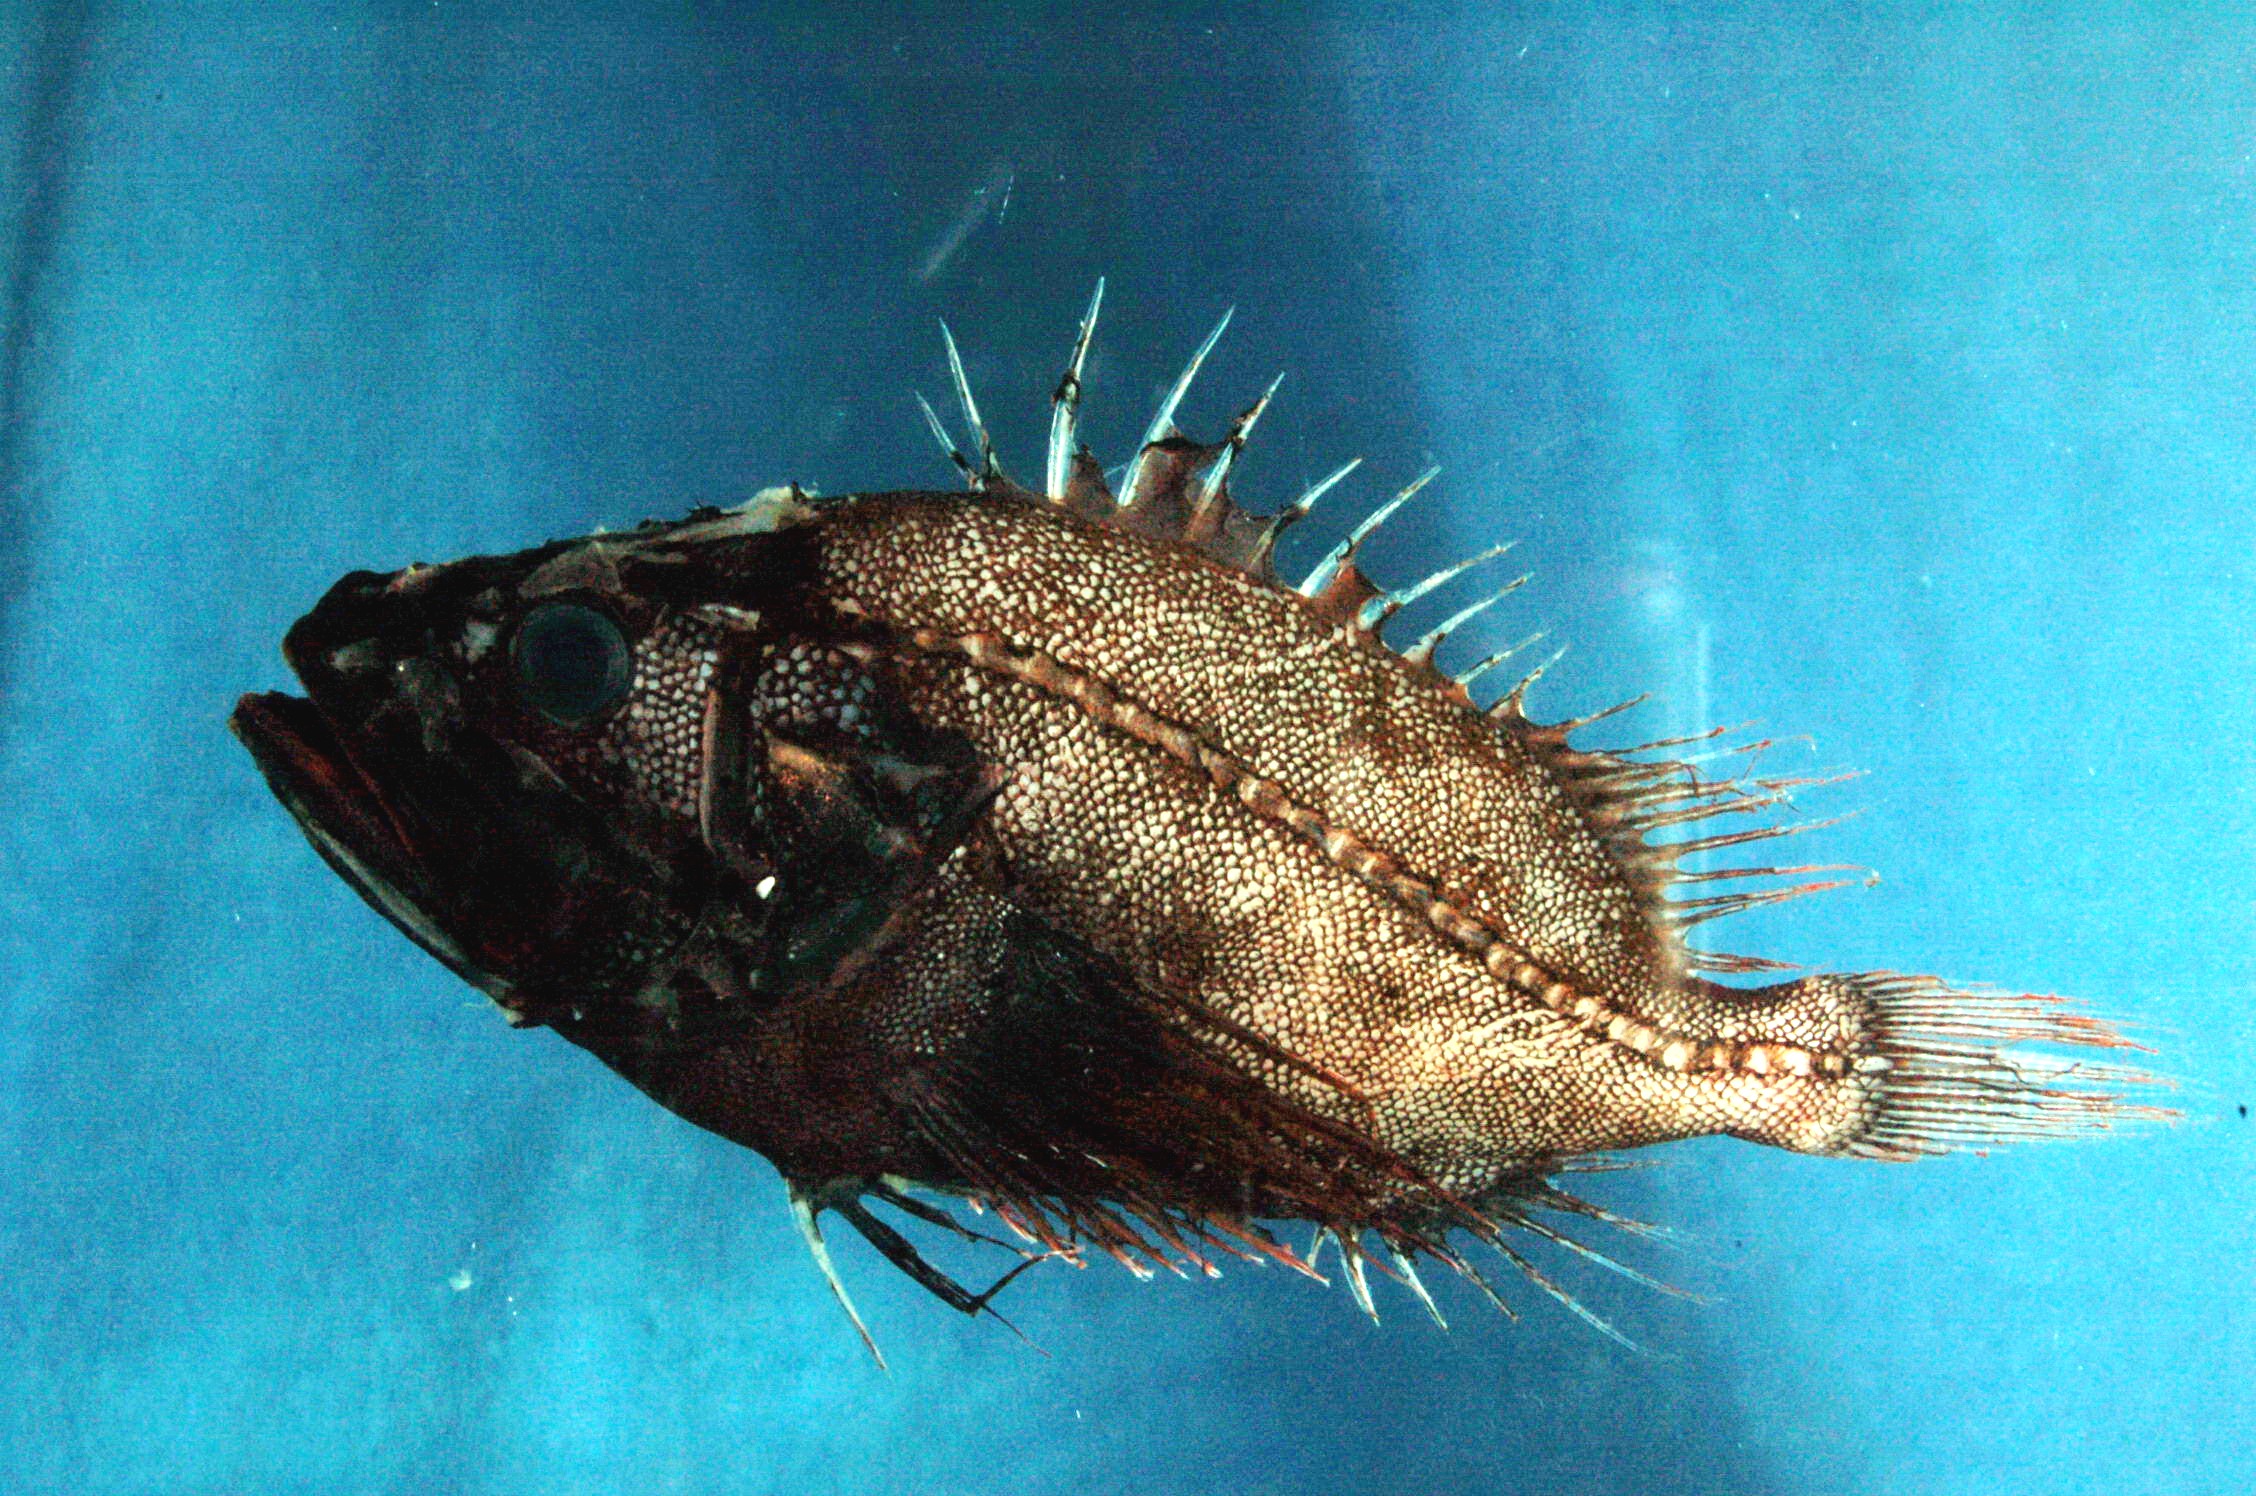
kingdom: Animalia
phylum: Chordata
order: Scorpaeniformes
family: Setarchidae
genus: Ectreposebastes
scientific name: Ectreposebastes imus
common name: Midwater scorpionfish
